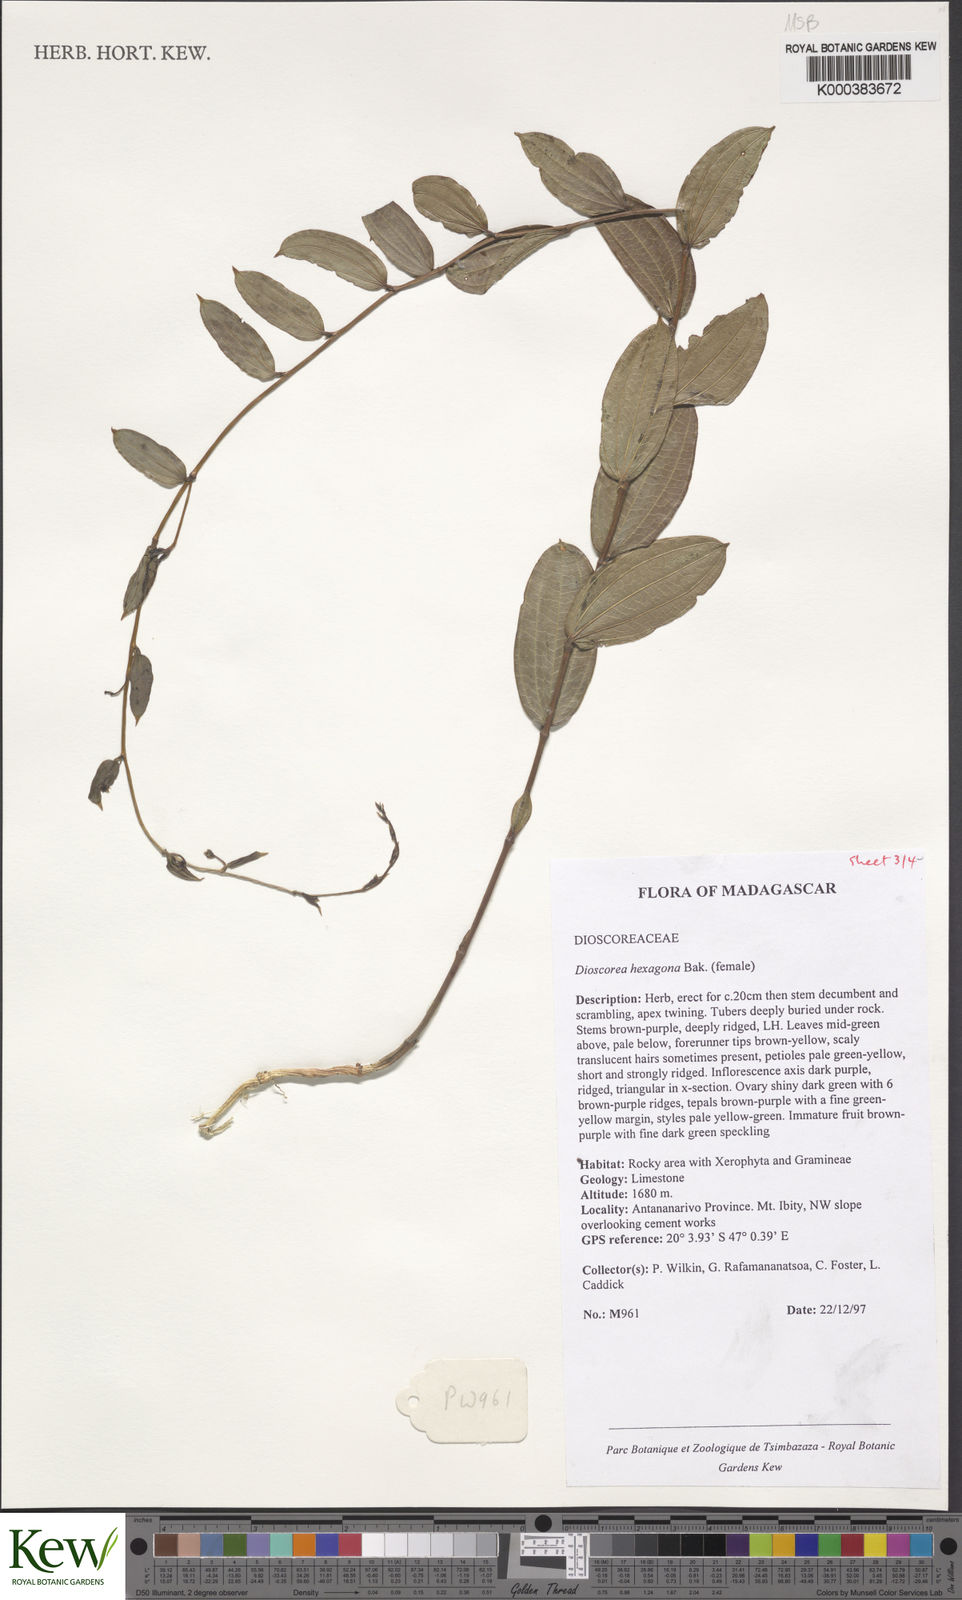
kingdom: Plantae
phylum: Tracheophyta
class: Liliopsida
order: Dioscoreales
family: Dioscoreaceae
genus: Dioscorea
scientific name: Dioscorea hexagona
